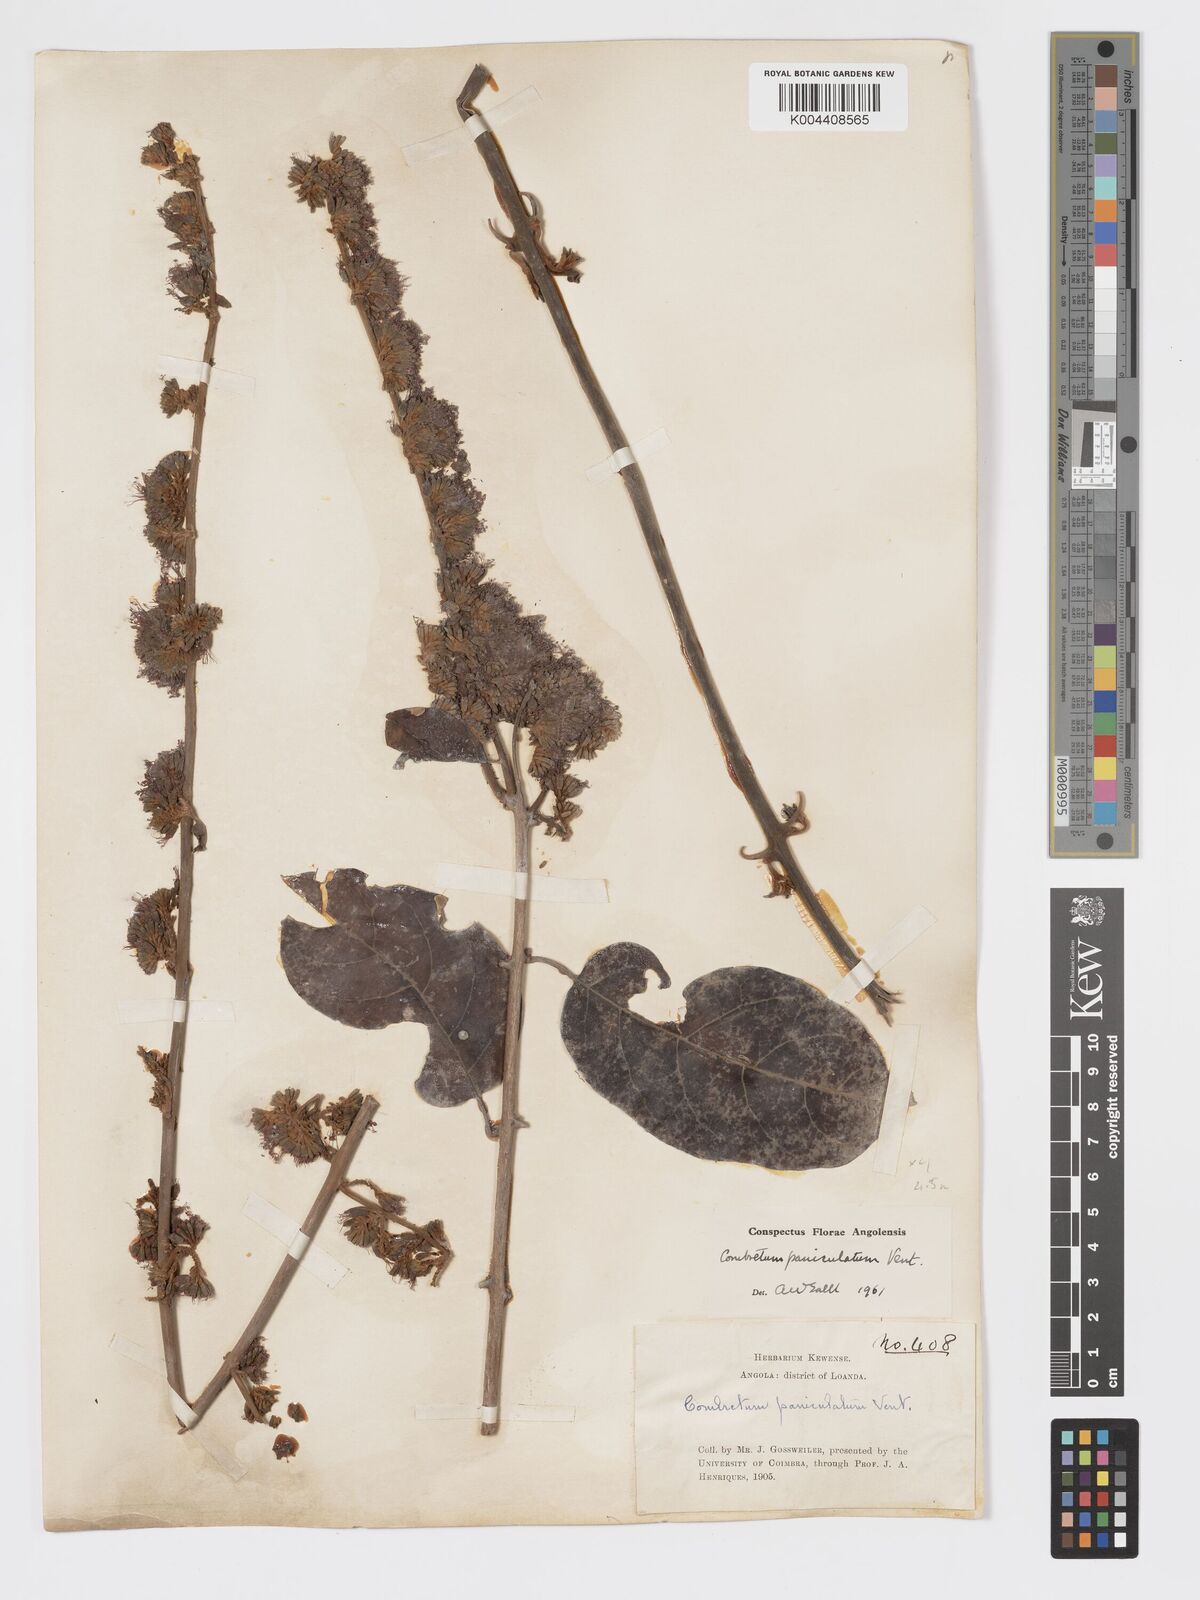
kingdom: Plantae
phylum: Tracheophyta
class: Magnoliopsida
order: Myrtales
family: Combretaceae
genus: Combretum
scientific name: Combretum paniculatum
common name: Fire vine
